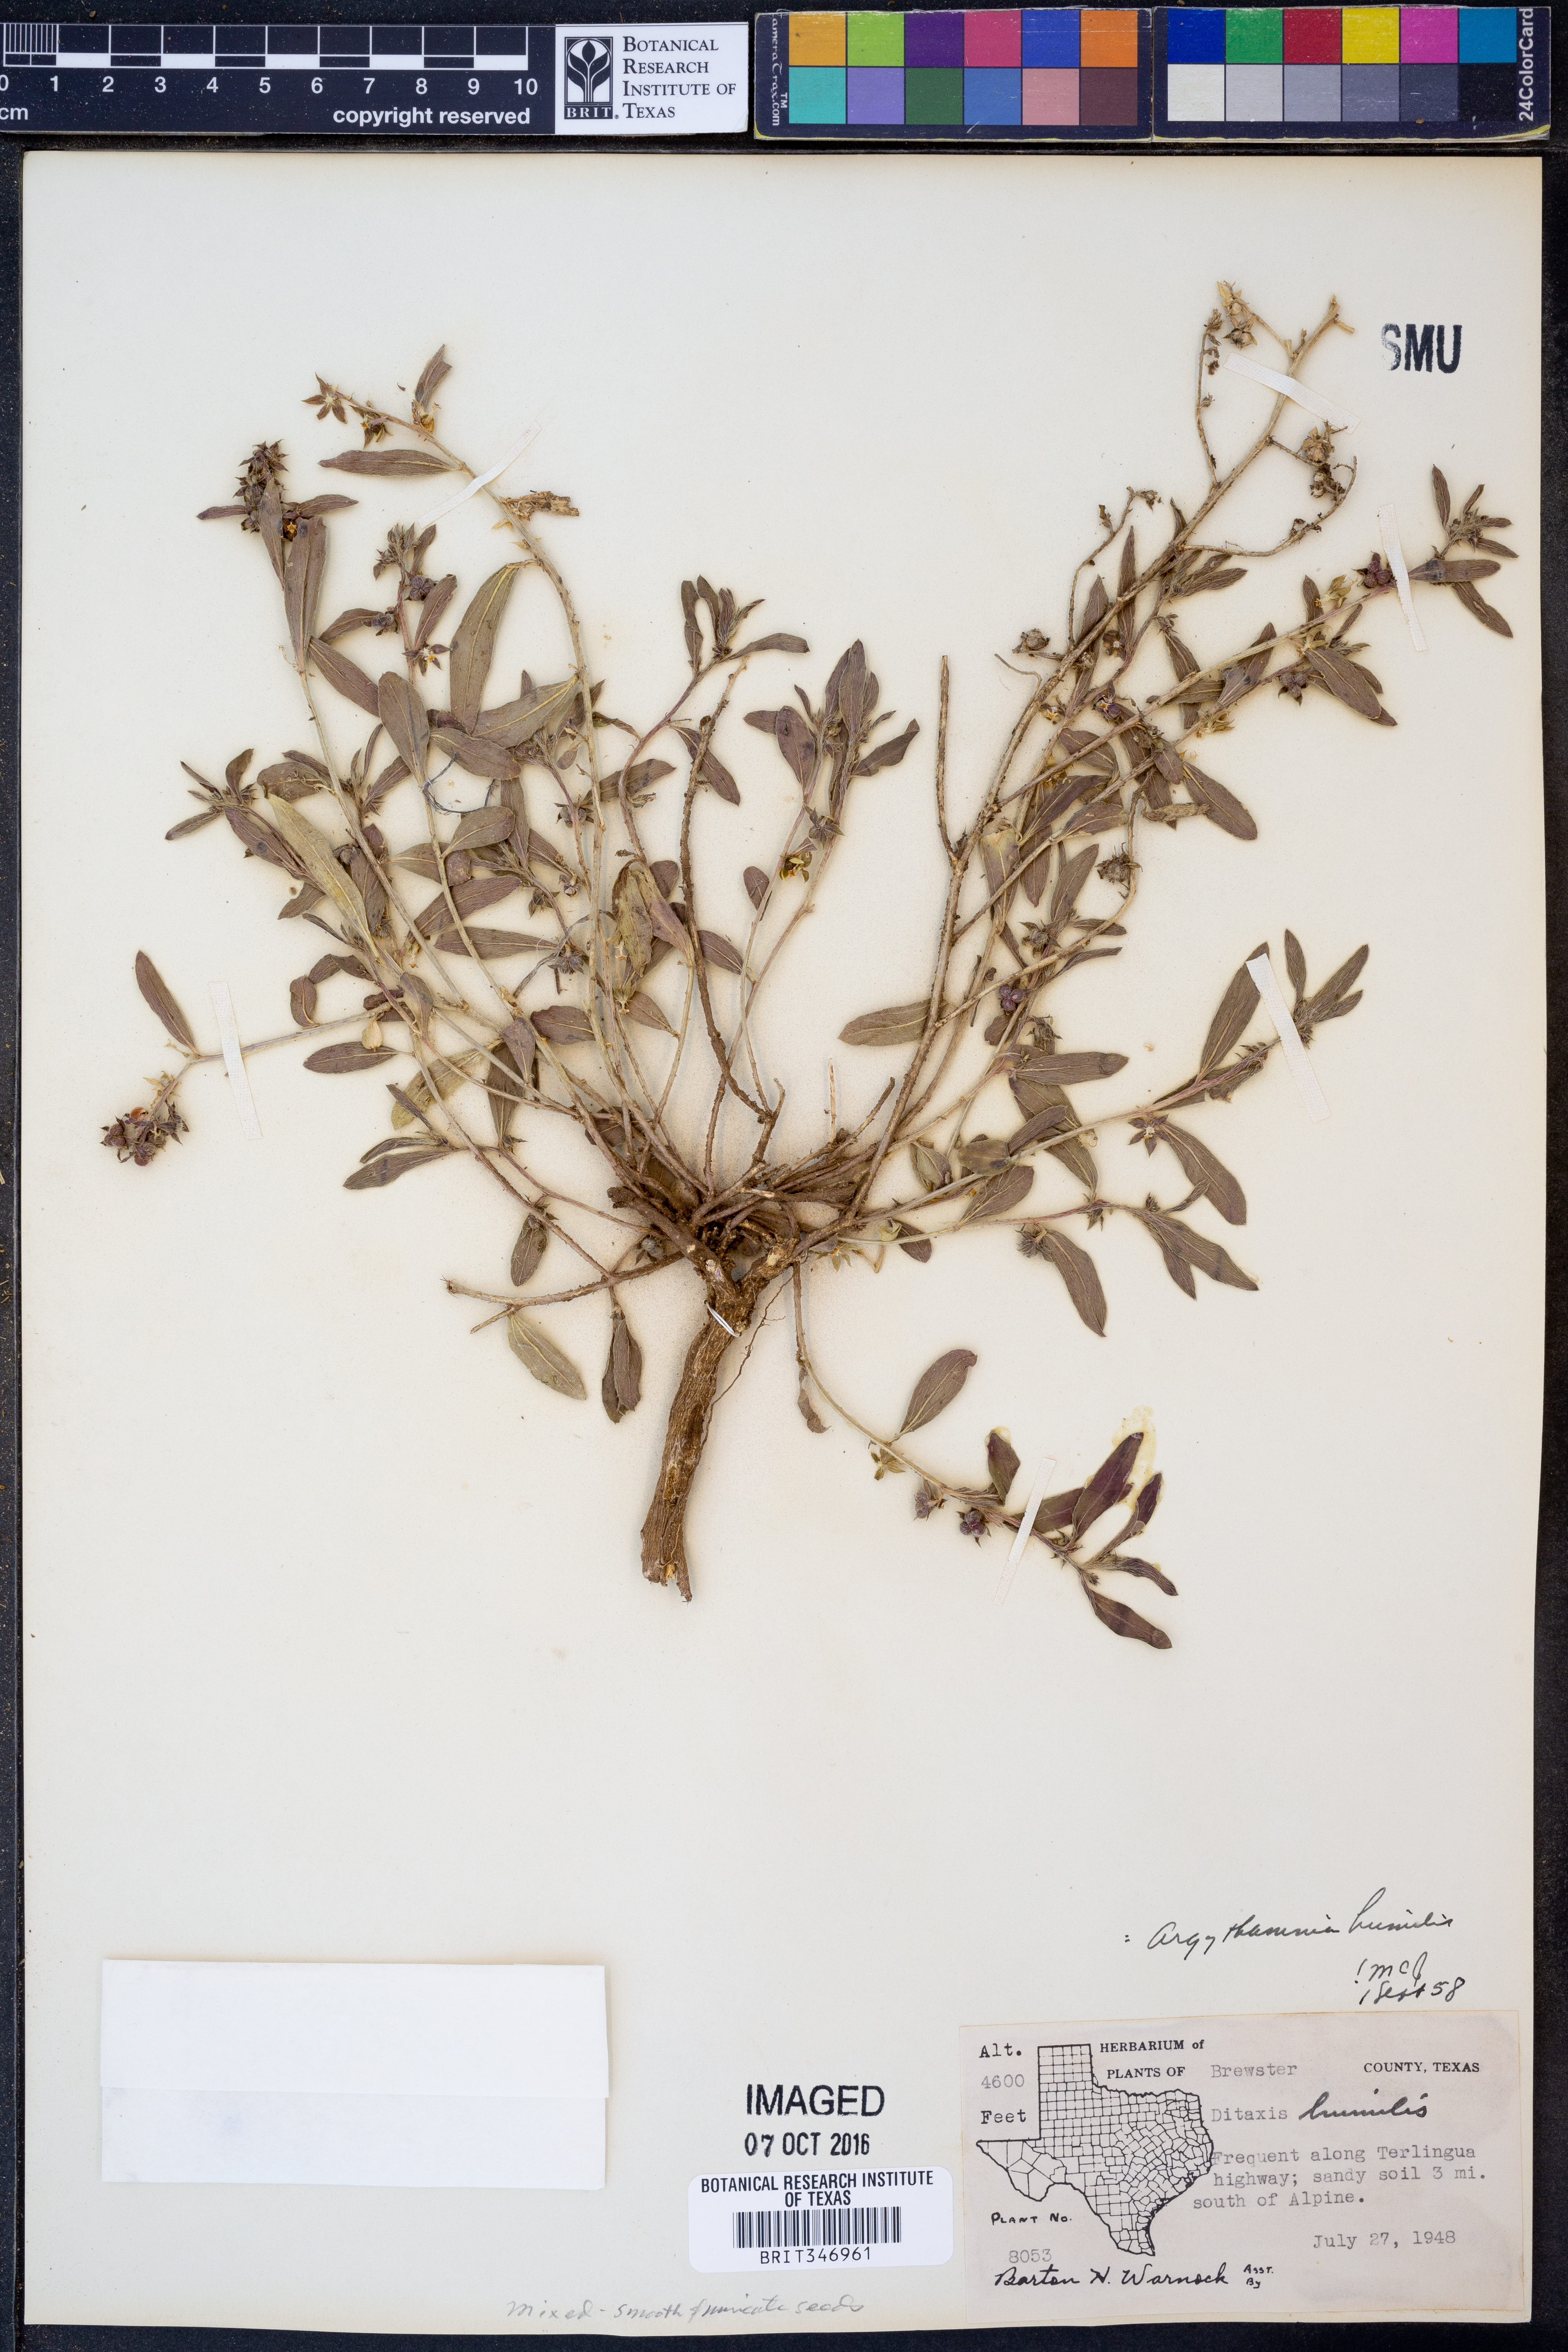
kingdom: Plantae
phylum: Tracheophyta
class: Magnoliopsida
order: Malpighiales
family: Euphorbiaceae
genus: Ditaxis
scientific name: Ditaxis humilis
